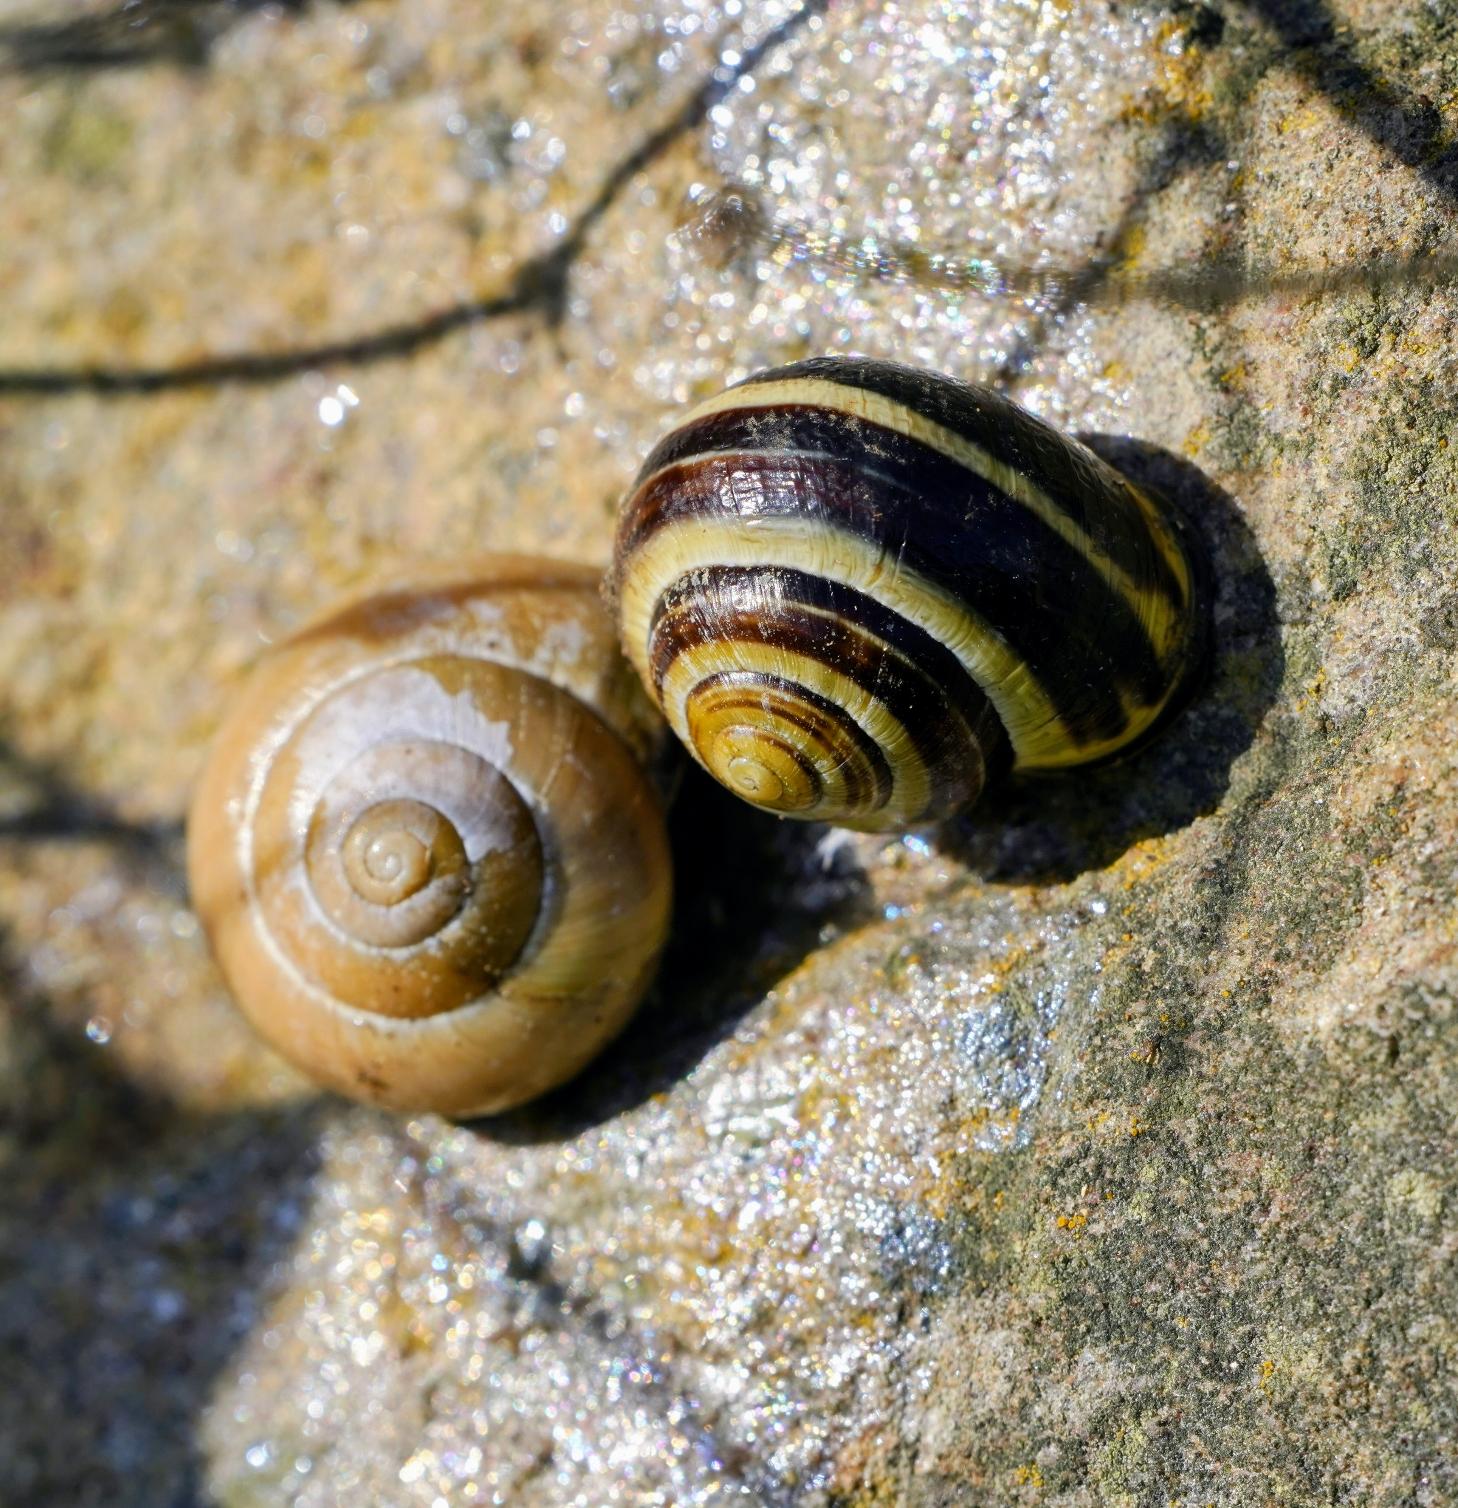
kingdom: Animalia
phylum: Mollusca
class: Gastropoda
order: Stylommatophora
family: Helicidae
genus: Cepaea
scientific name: Cepaea nemoralis
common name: Lundsnegl
